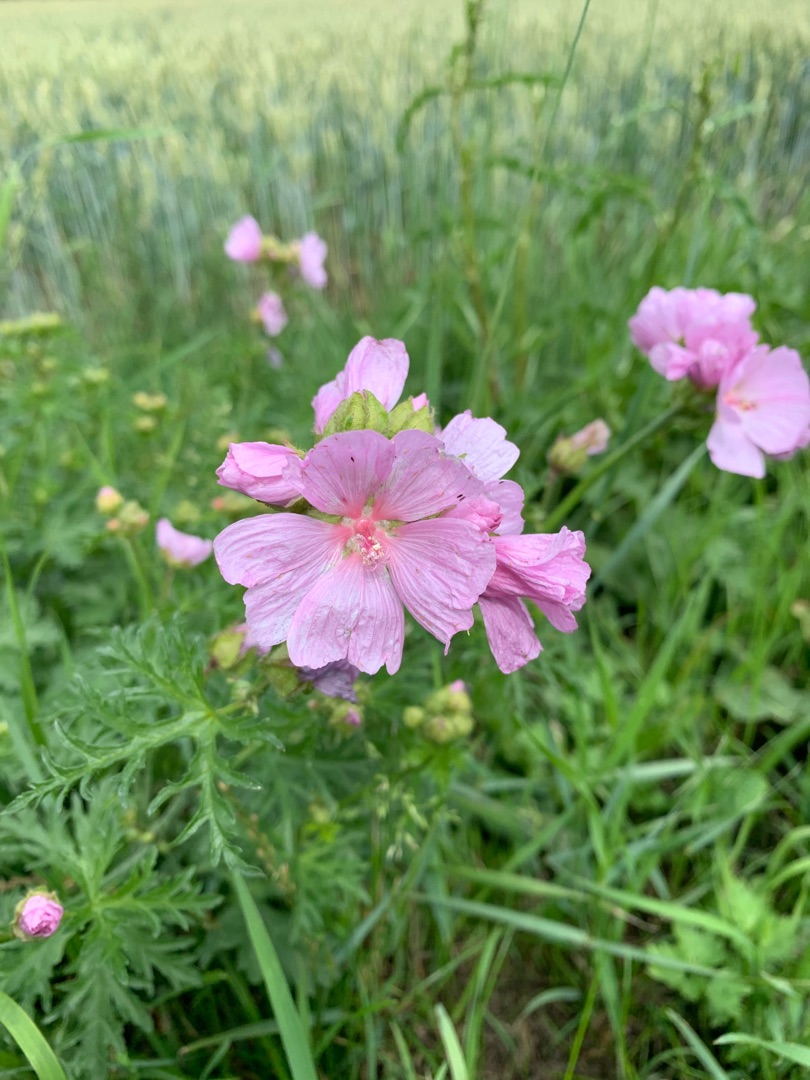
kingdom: Plantae
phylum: Tracheophyta
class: Magnoliopsida
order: Malvales
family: Malvaceae
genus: Malva
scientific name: Malva moschata
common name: Moskus-katost
